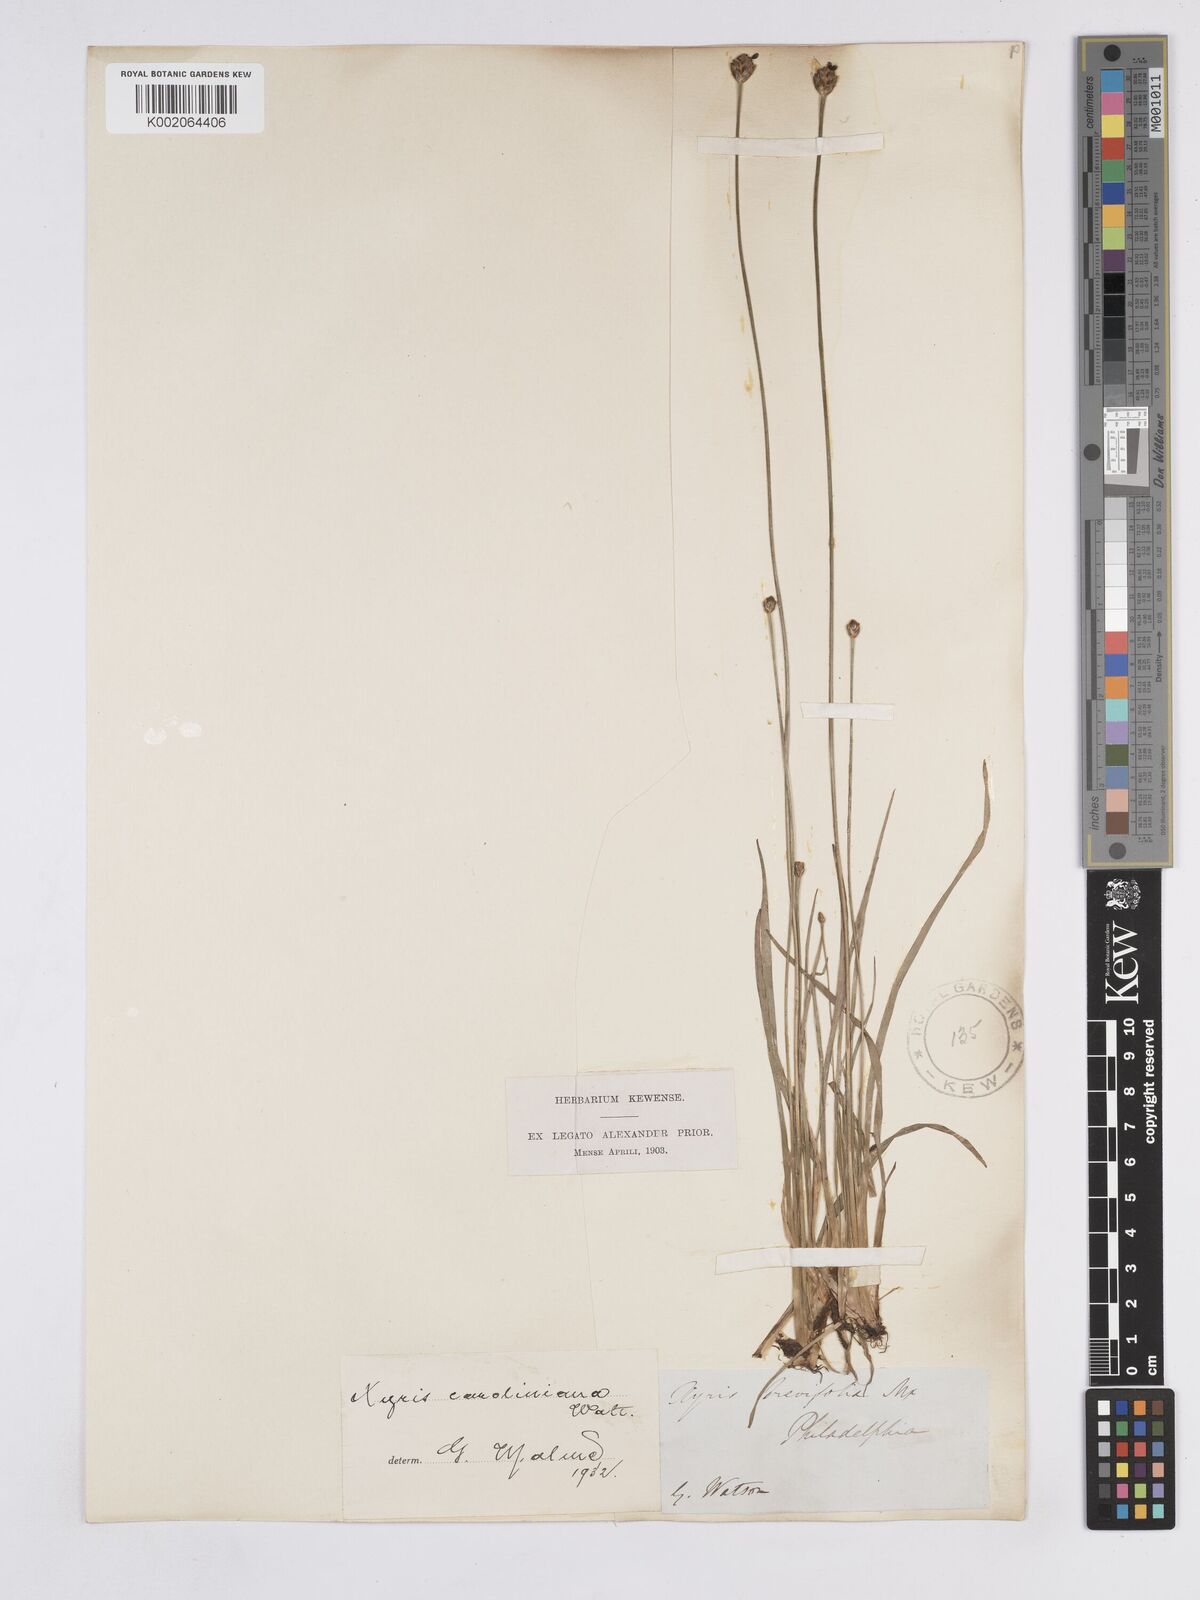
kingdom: Plantae
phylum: Tracheophyta
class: Liliopsida
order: Poales
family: Xyridaceae
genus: Xyris
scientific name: Xyris caroliniana
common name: Carolina yellow-eyed-grass
